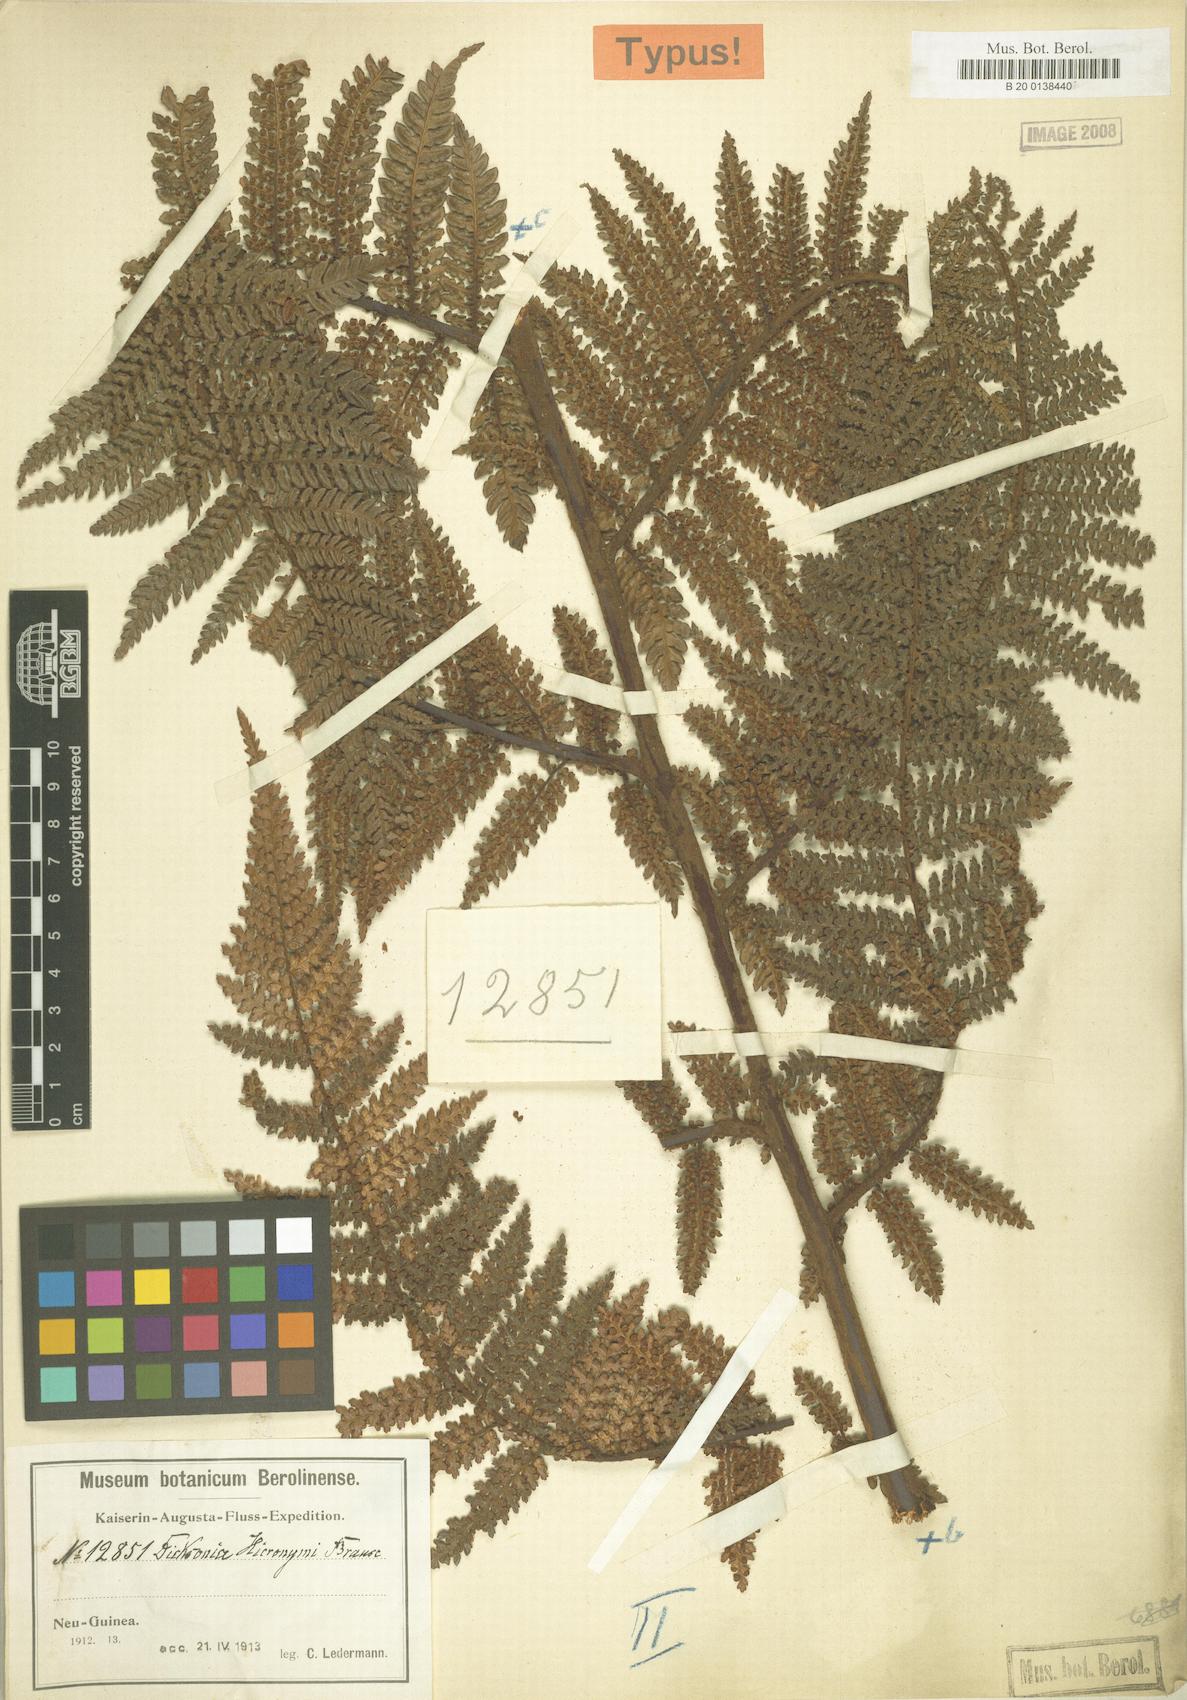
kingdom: Plantae
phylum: Tracheophyta
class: Polypodiopsida
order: Cyatheales
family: Dicksoniaceae
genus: Dicksonia
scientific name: Dicksonia hieronymi
